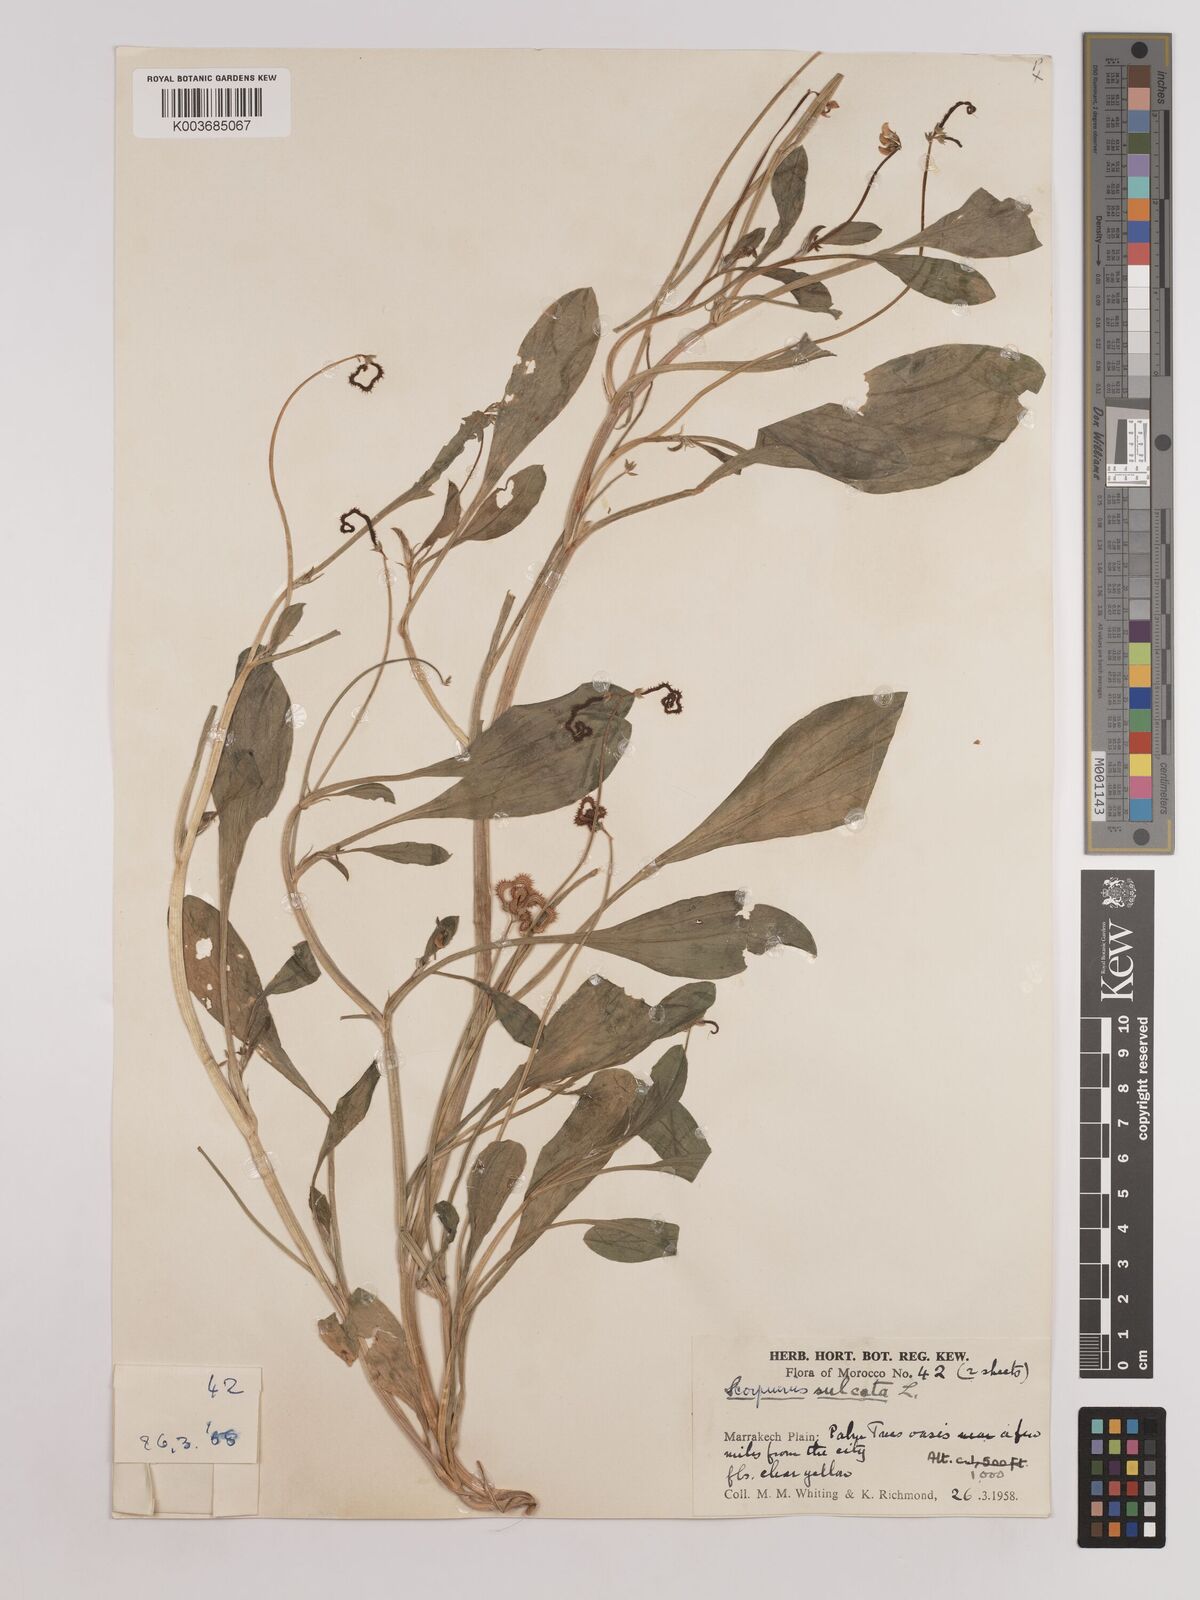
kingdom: Plantae
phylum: Tracheophyta
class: Magnoliopsida
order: Fabales
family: Fabaceae
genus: Scorpiurus
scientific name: Scorpiurus muricatus
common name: Caterpillar-plant
